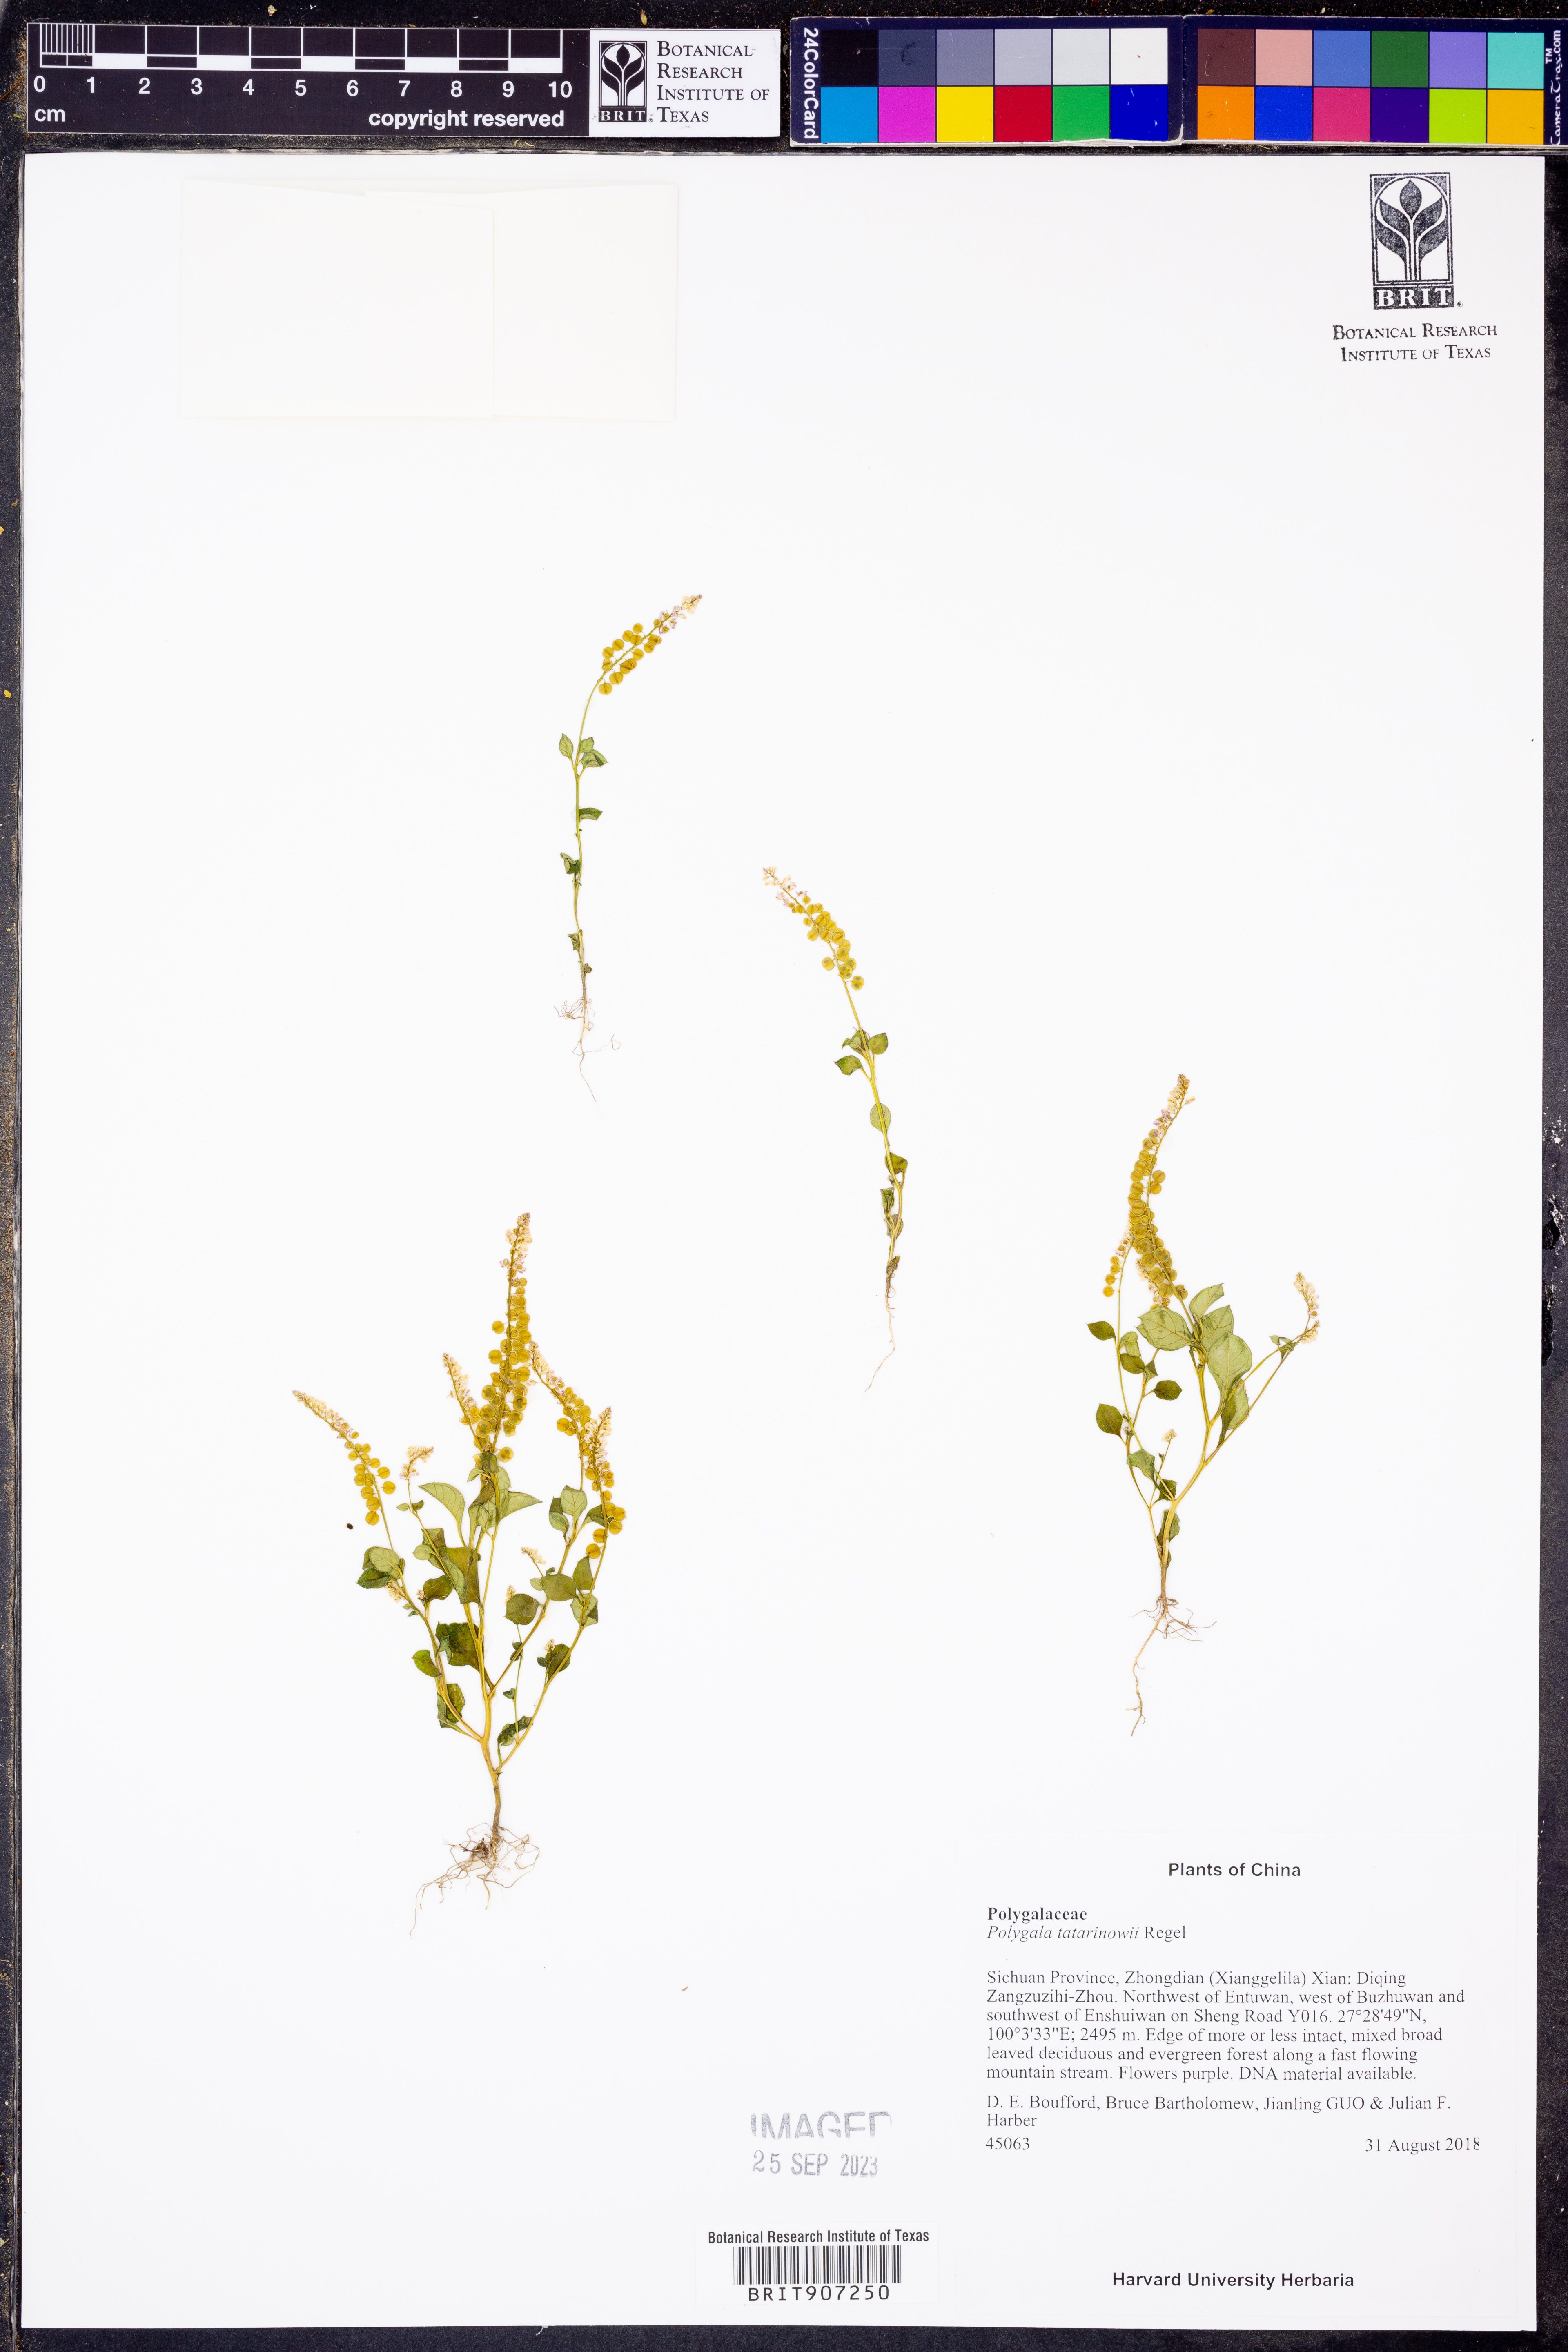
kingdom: Plantae
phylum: Tracheophyta
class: Magnoliopsida
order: Fabales
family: Polygalaceae
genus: Polygala
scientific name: Polygala tatarinowii
